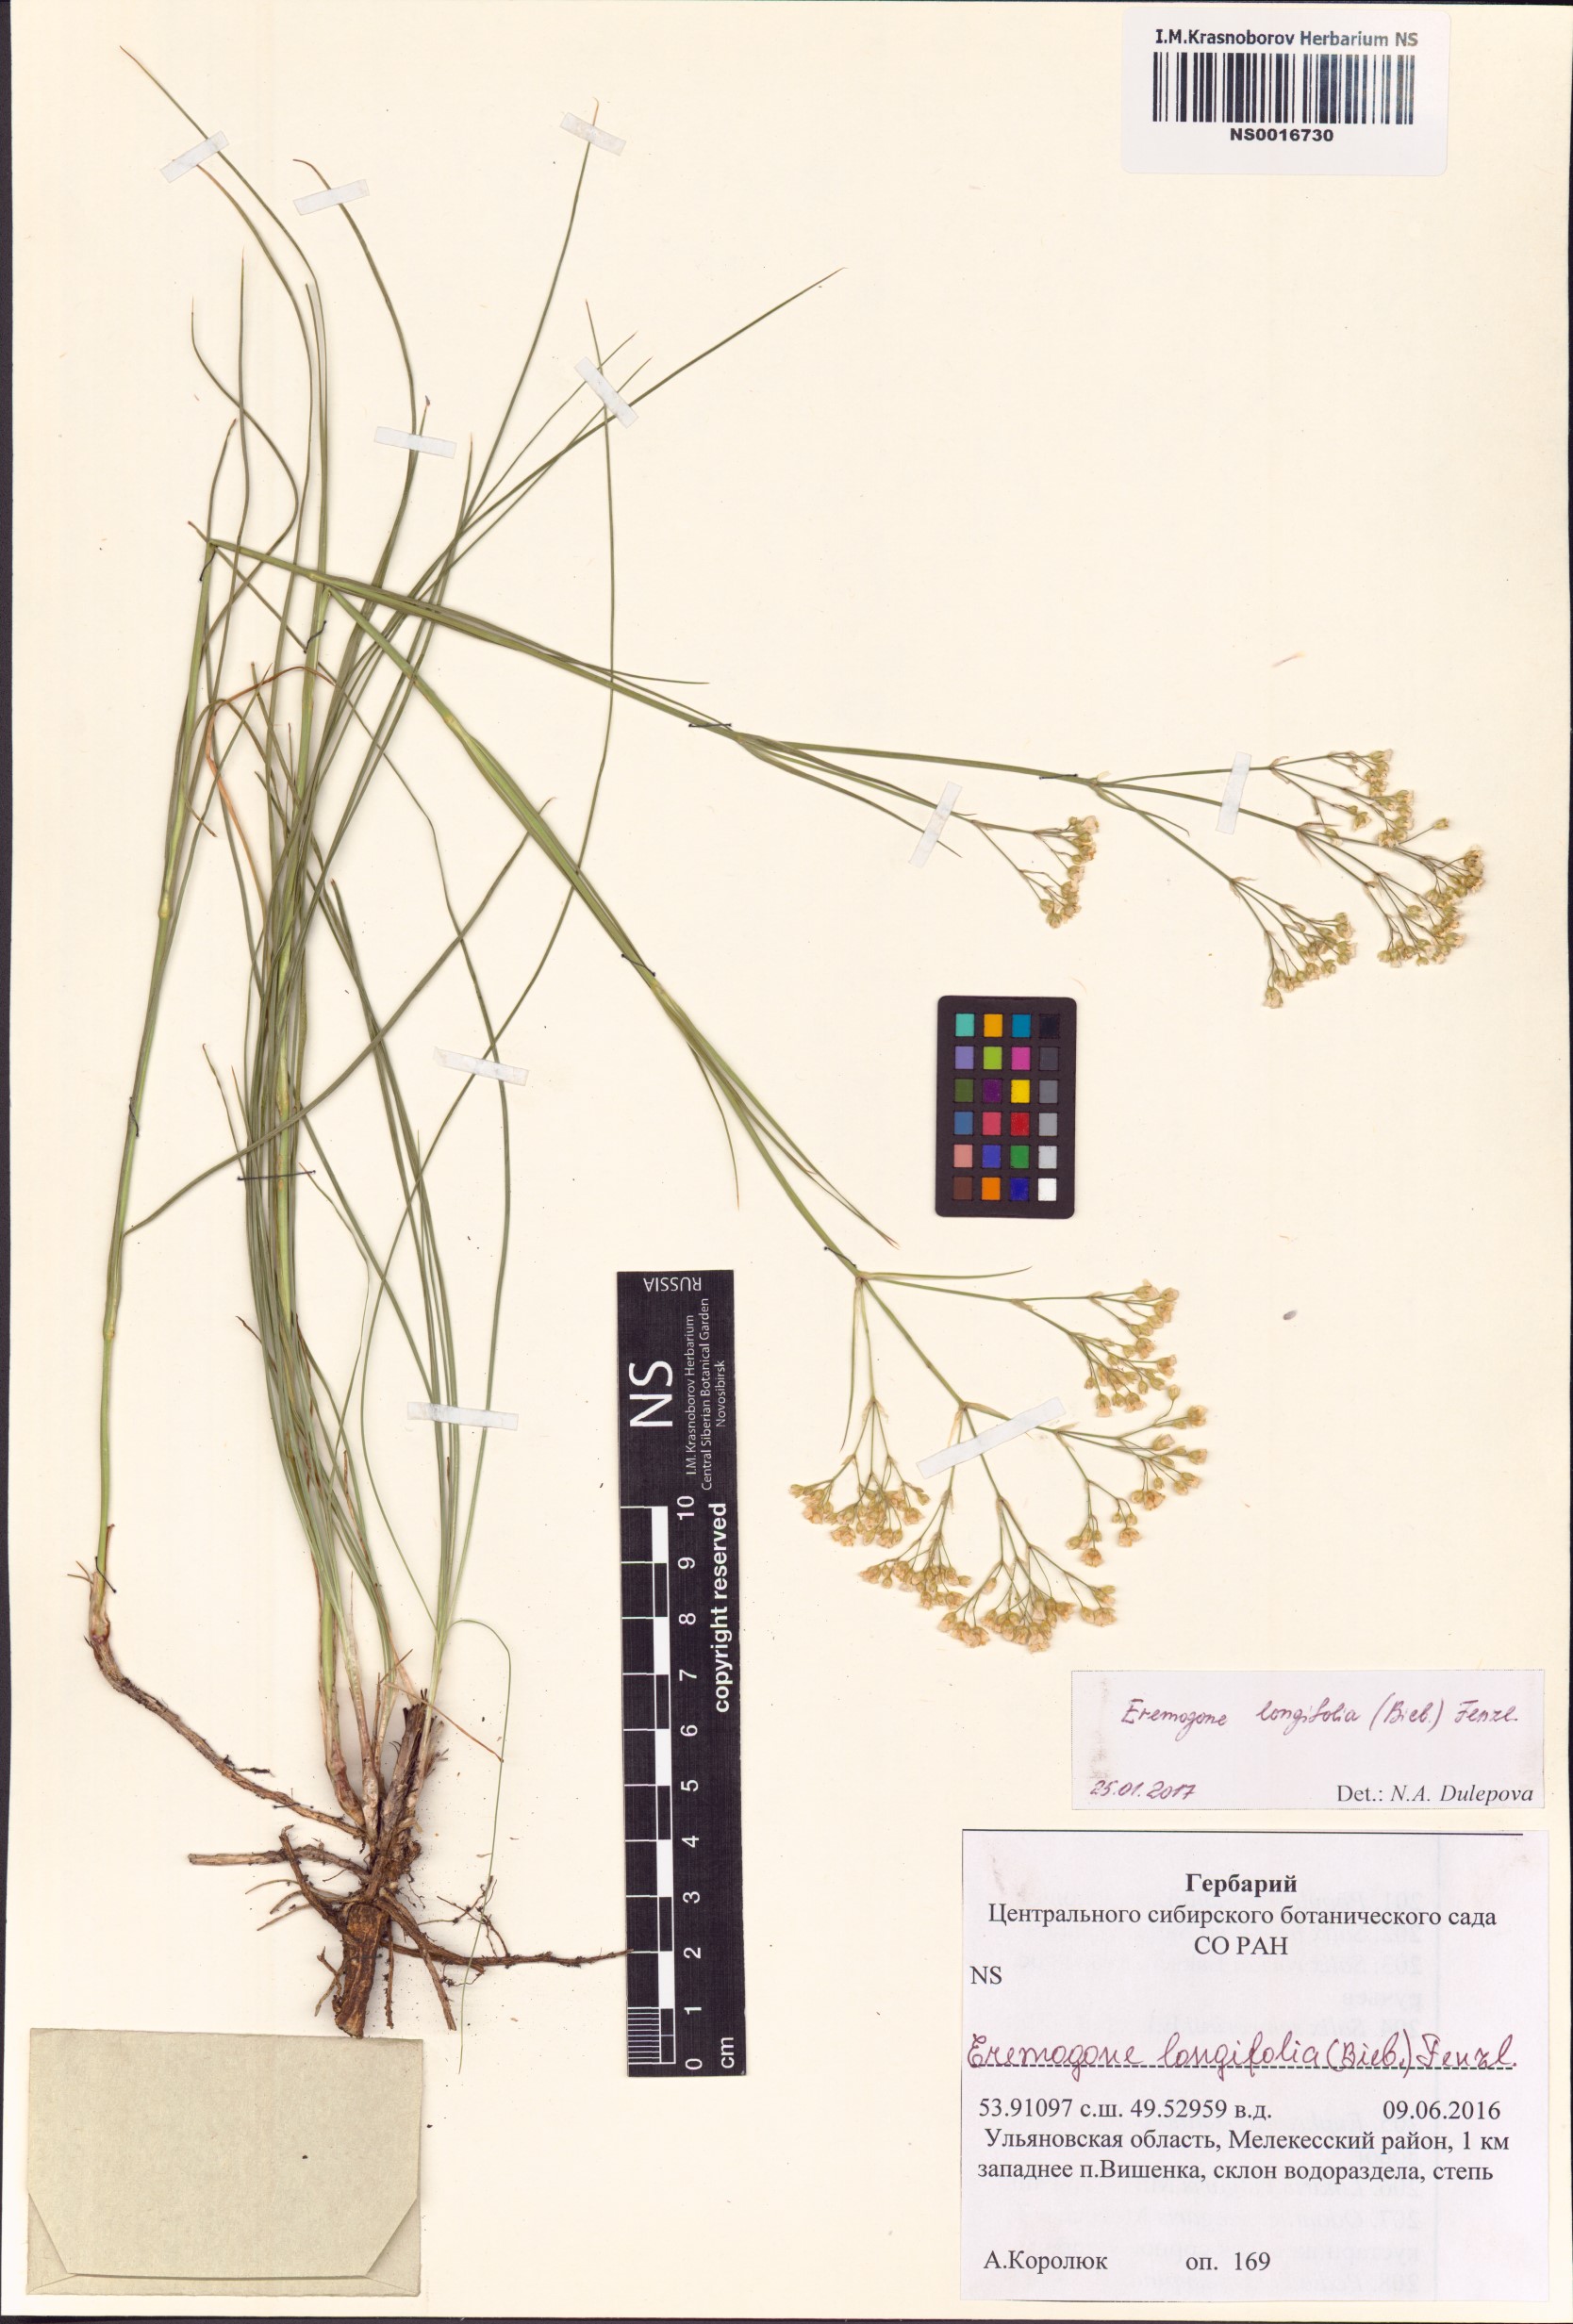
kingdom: Plantae
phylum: Tracheophyta
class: Magnoliopsida
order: Caryophyllales
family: Caryophyllaceae
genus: Eremogone
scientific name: Eremogone longifolia
